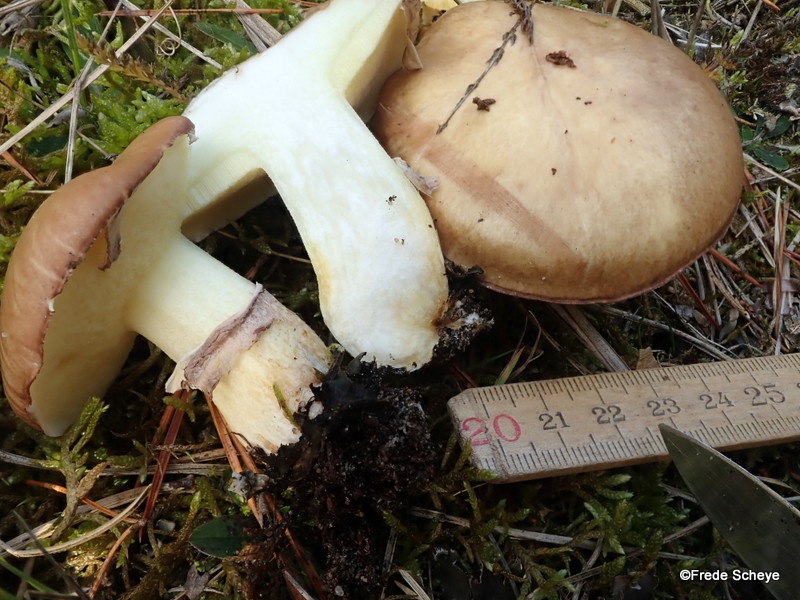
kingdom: Fungi
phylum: Basidiomycota
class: Agaricomycetes
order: Boletales
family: Suillaceae
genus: Suillus
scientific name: Suillus luteus
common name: brungul slimrørhat
